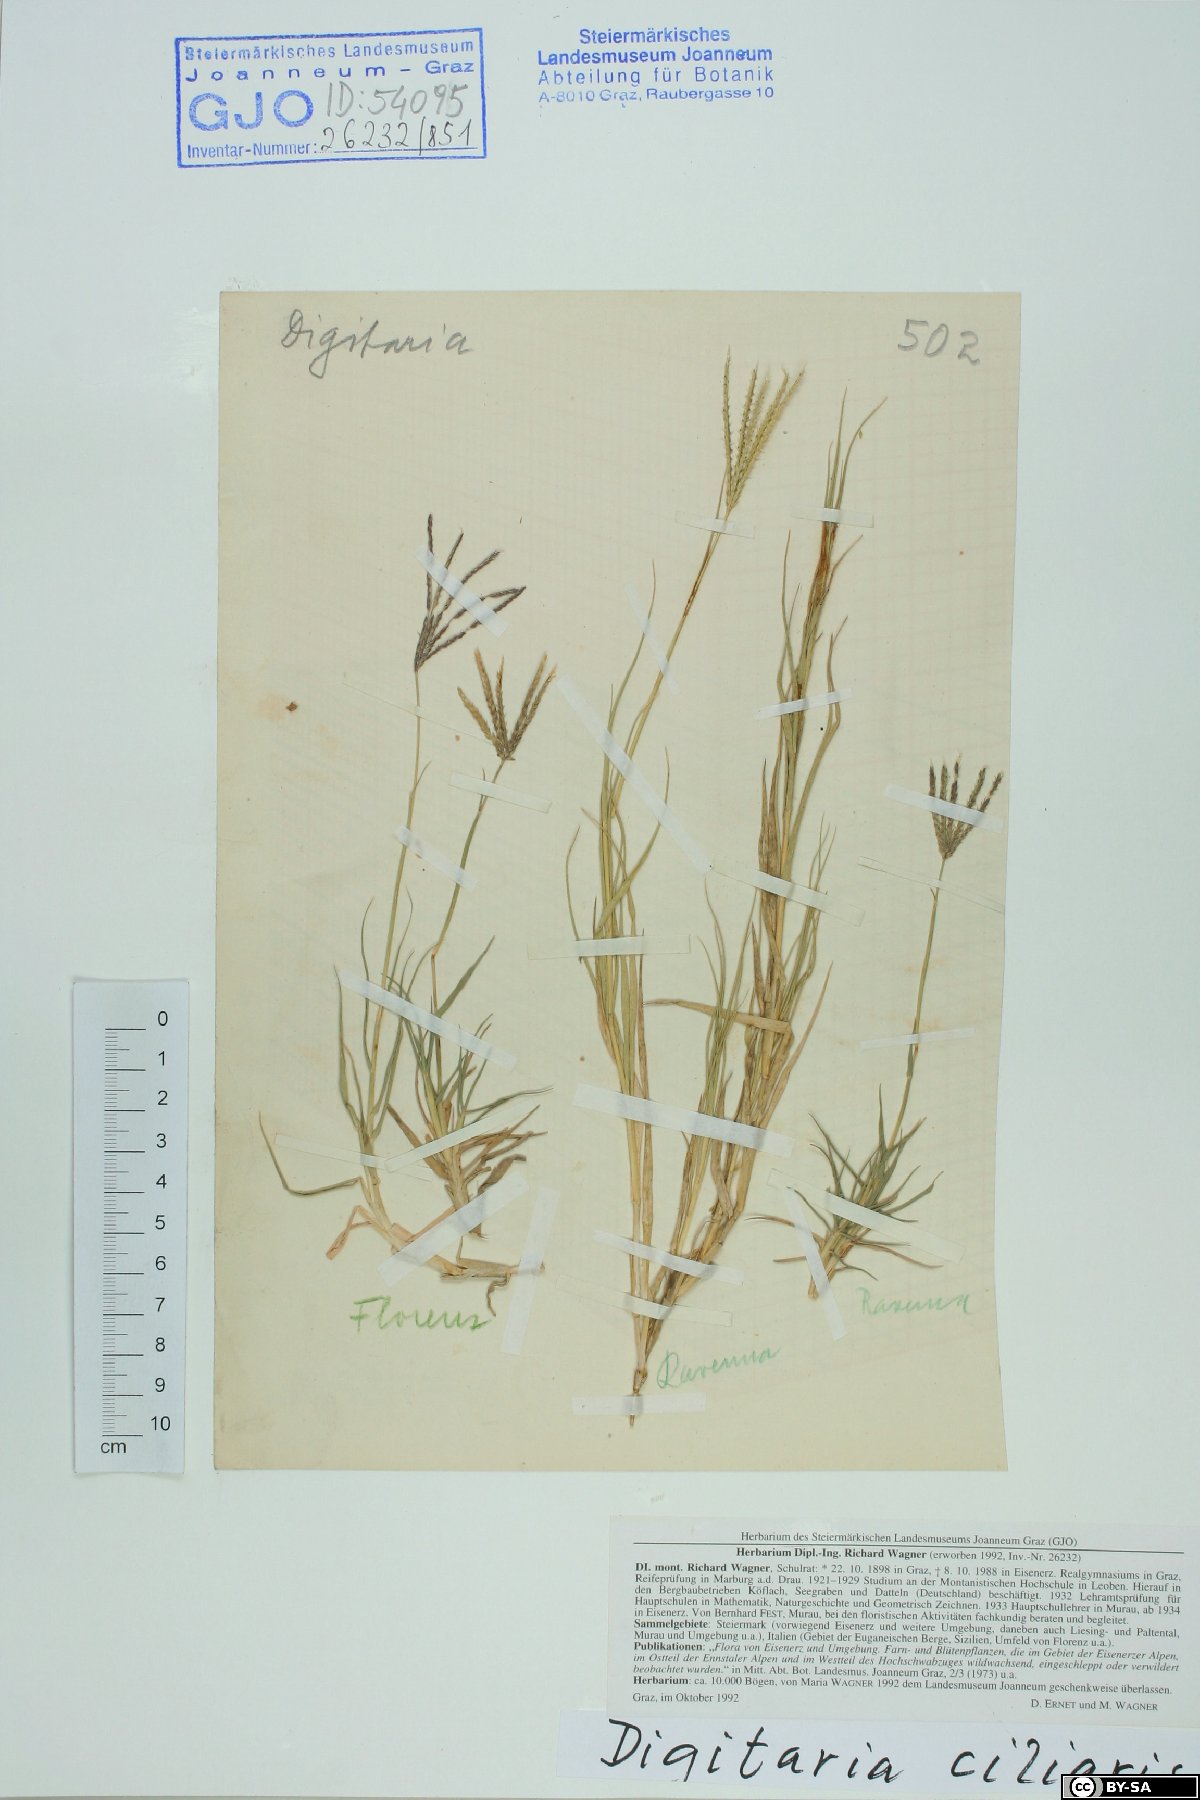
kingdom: Plantae
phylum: Tracheophyta
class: Liliopsida
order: Poales
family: Poaceae
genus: Digitaria
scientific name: Digitaria ciliaris
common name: Tropical finger-grass
